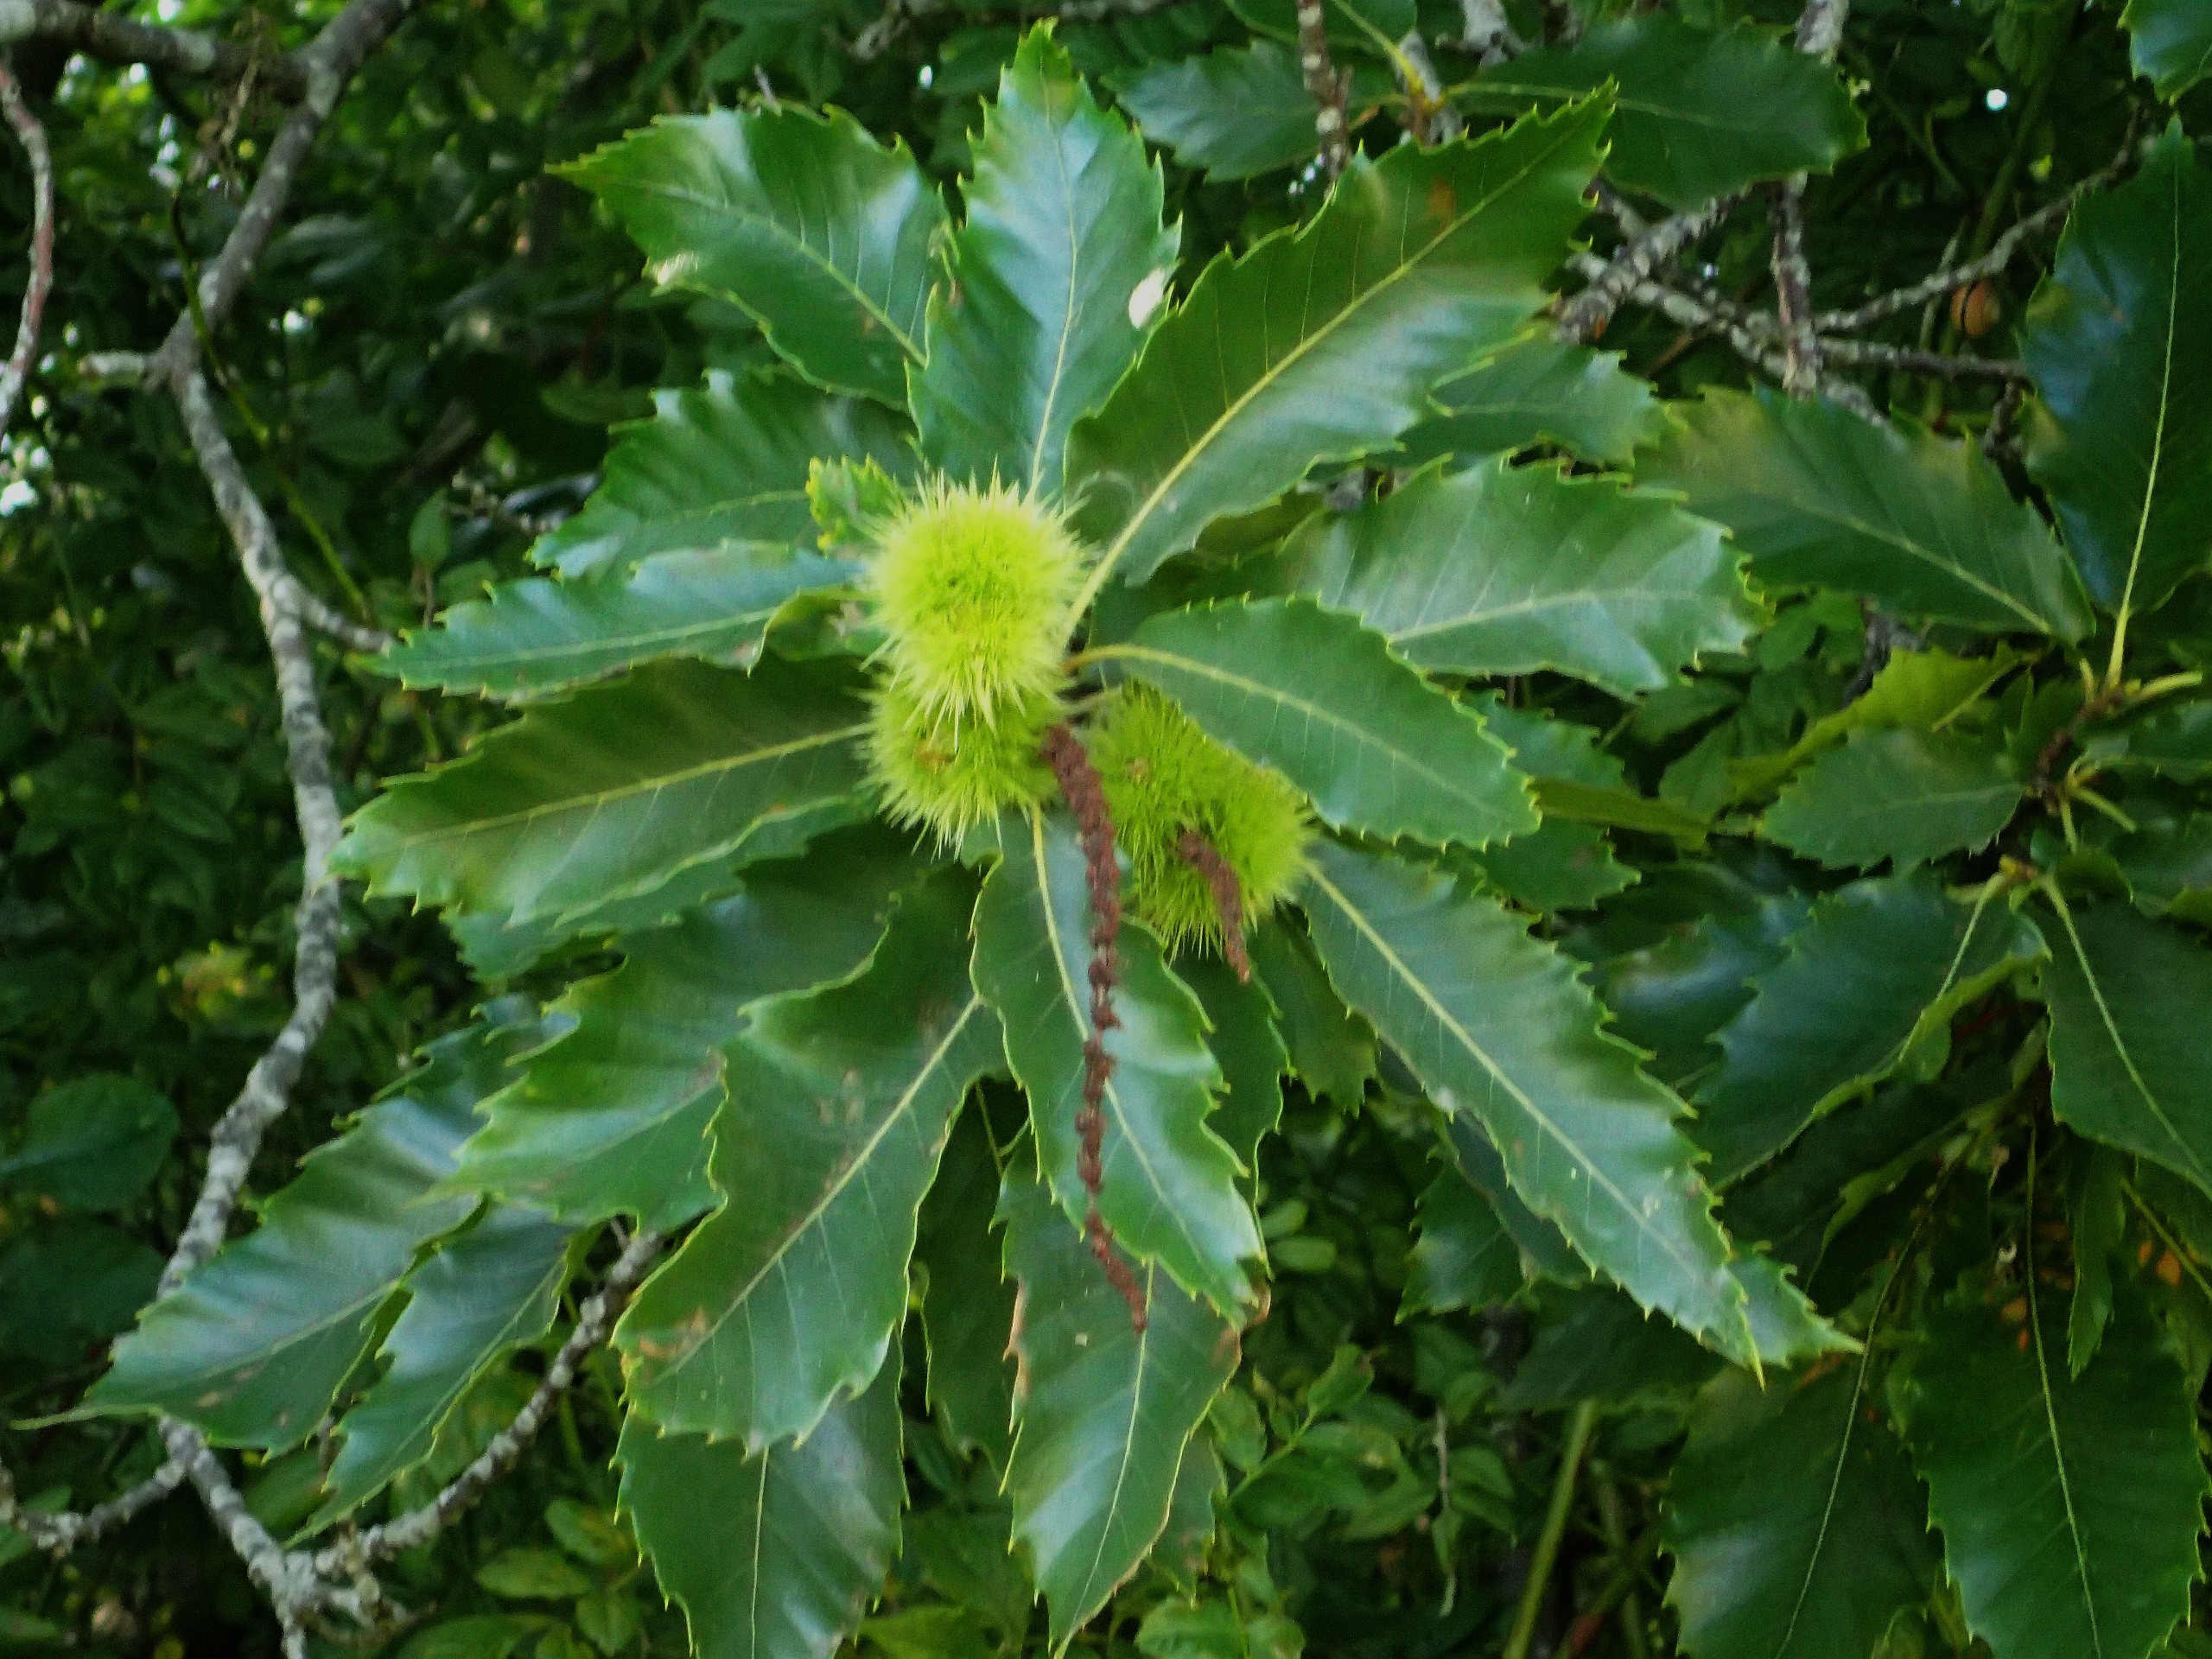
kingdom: Plantae
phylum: Tracheophyta
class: Magnoliopsida
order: Fagales
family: Fagaceae
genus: Castanea
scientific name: Castanea sativa
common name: Ægte kastanie
